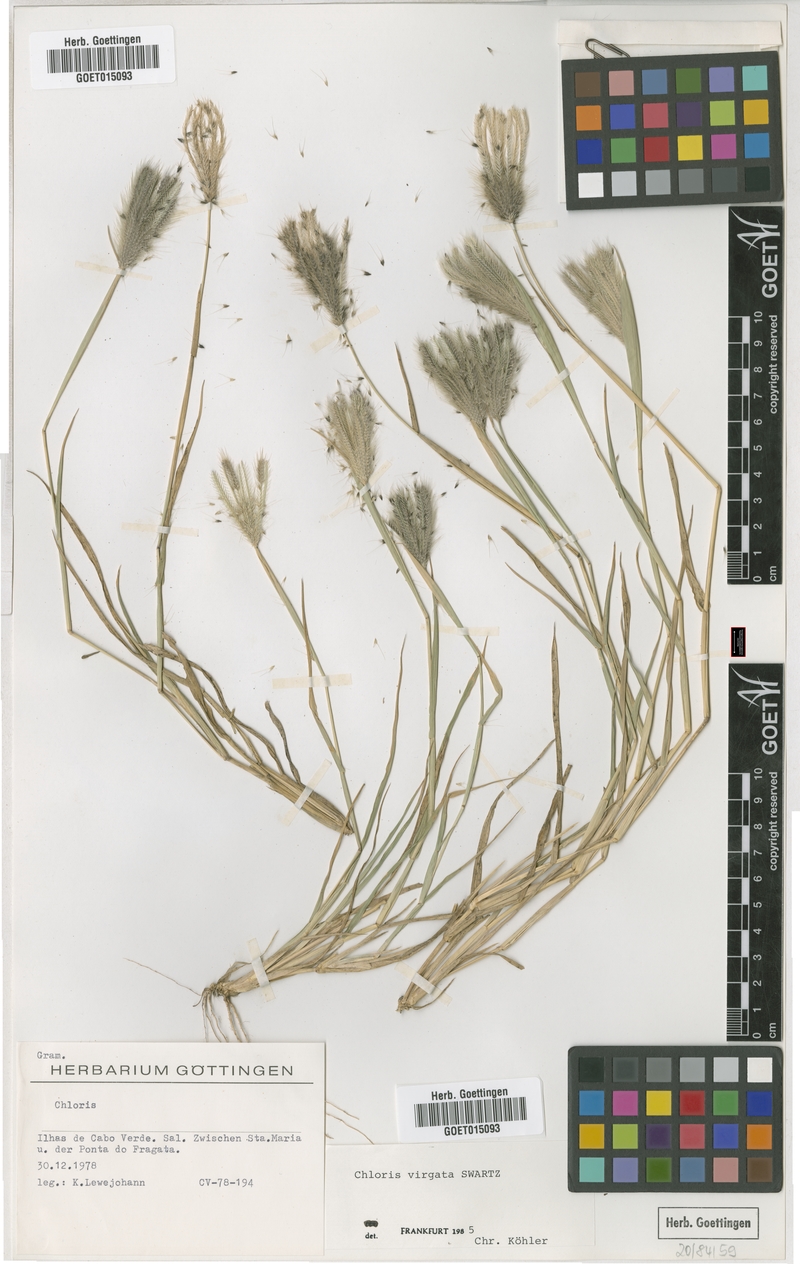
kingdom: Plantae
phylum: Tracheophyta
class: Liliopsida
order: Poales
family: Poaceae
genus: Chloris
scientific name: Chloris virgata
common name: Feathery rhodes-grass
